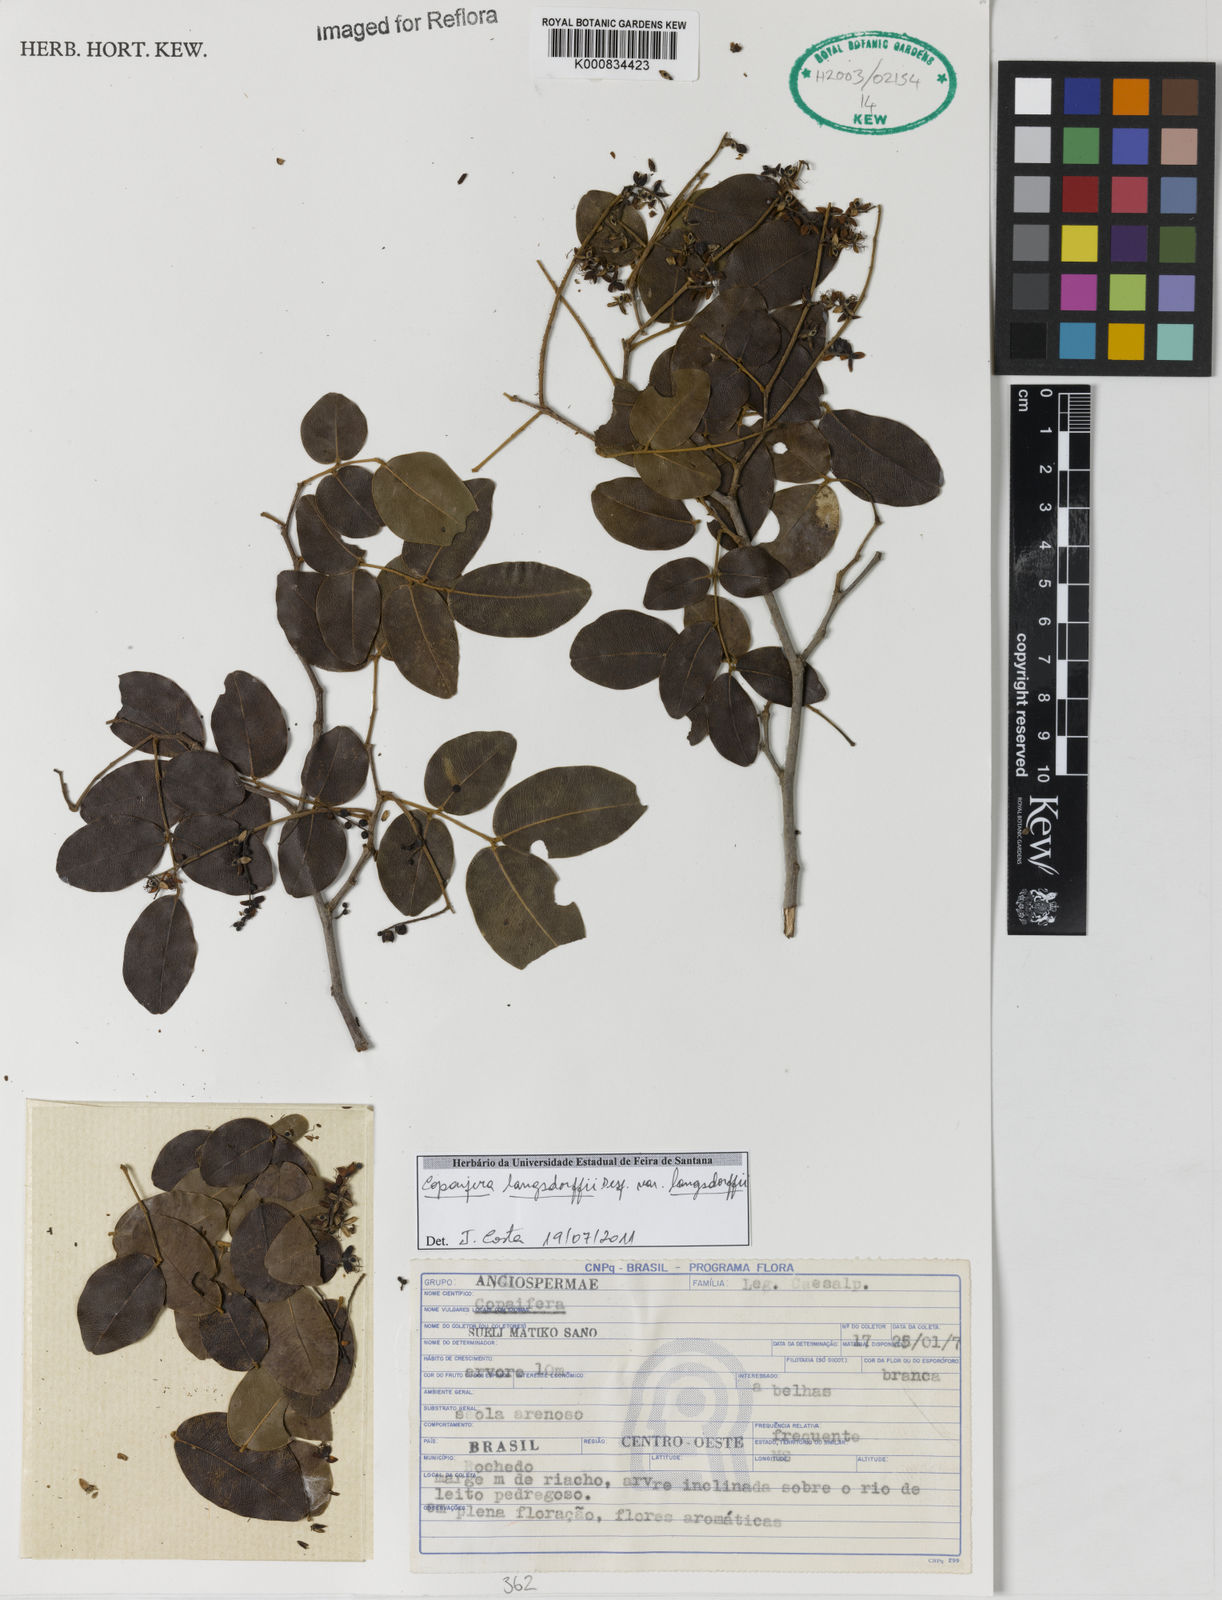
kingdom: Plantae
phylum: Tracheophyta
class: Magnoliopsida
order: Fabales
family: Fabaceae
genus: Copaifera
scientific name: Copaifera langsdorffii
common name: Brazilian diesel tree
